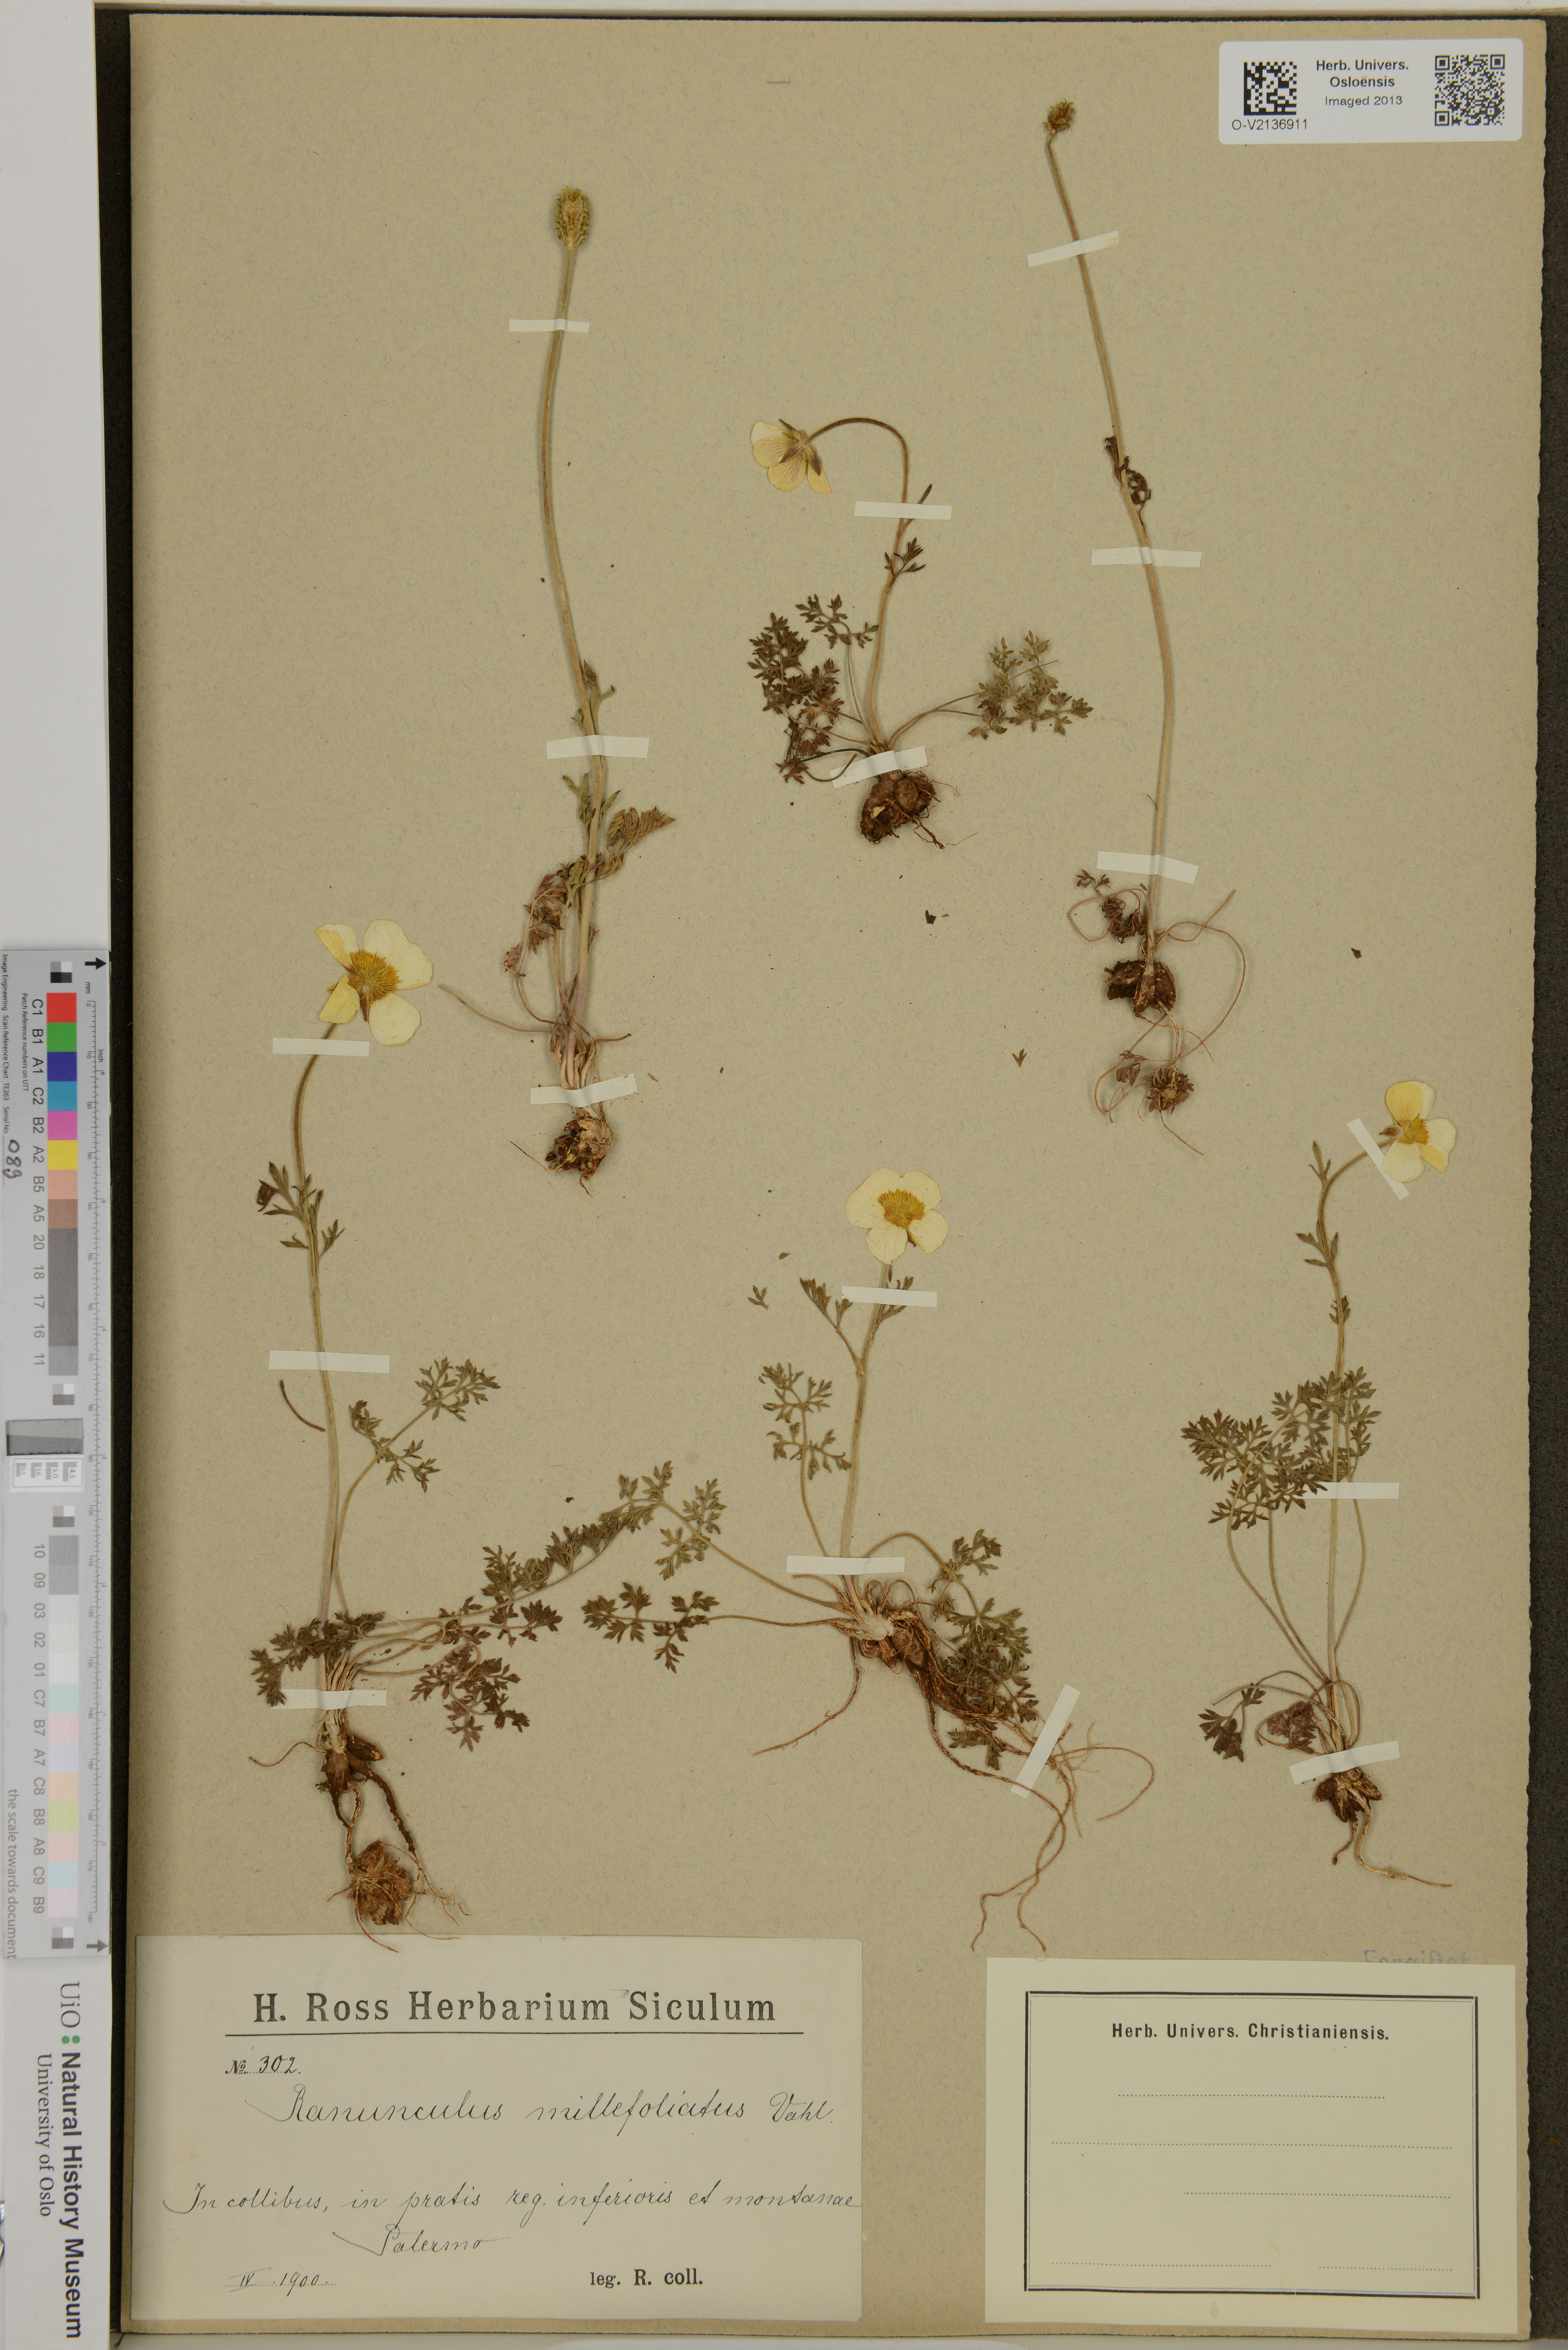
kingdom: Plantae
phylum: Tracheophyta
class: Magnoliopsida
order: Ranunculales
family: Ranunculaceae
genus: Ranunculus
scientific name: Ranunculus millefoliatus
